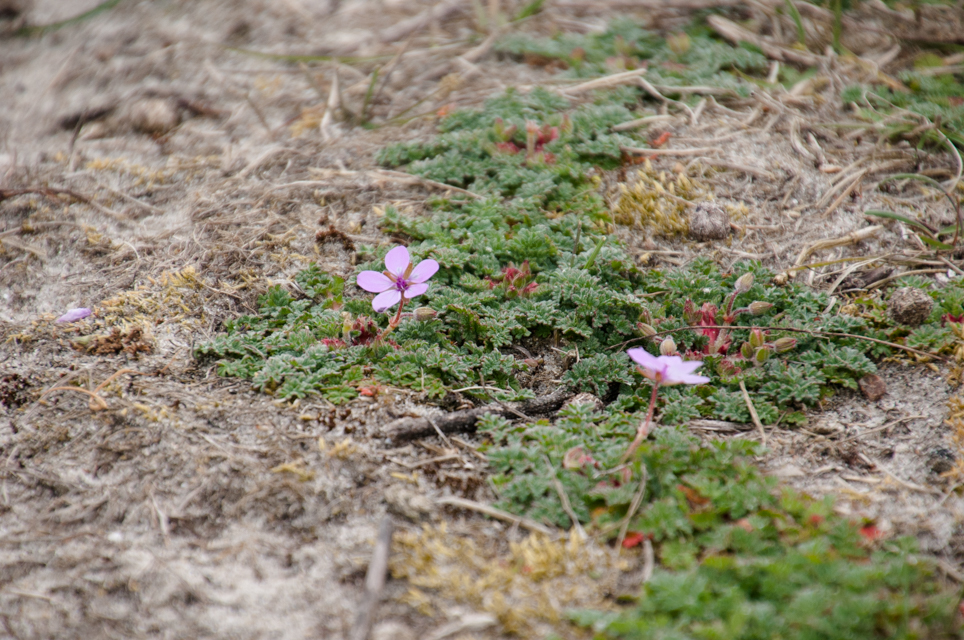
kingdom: Plantae
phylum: Tracheophyta
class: Magnoliopsida
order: Geraniales
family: Geraniaceae
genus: Erodium
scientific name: Erodium cicutarium
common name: Common stork's-bill
